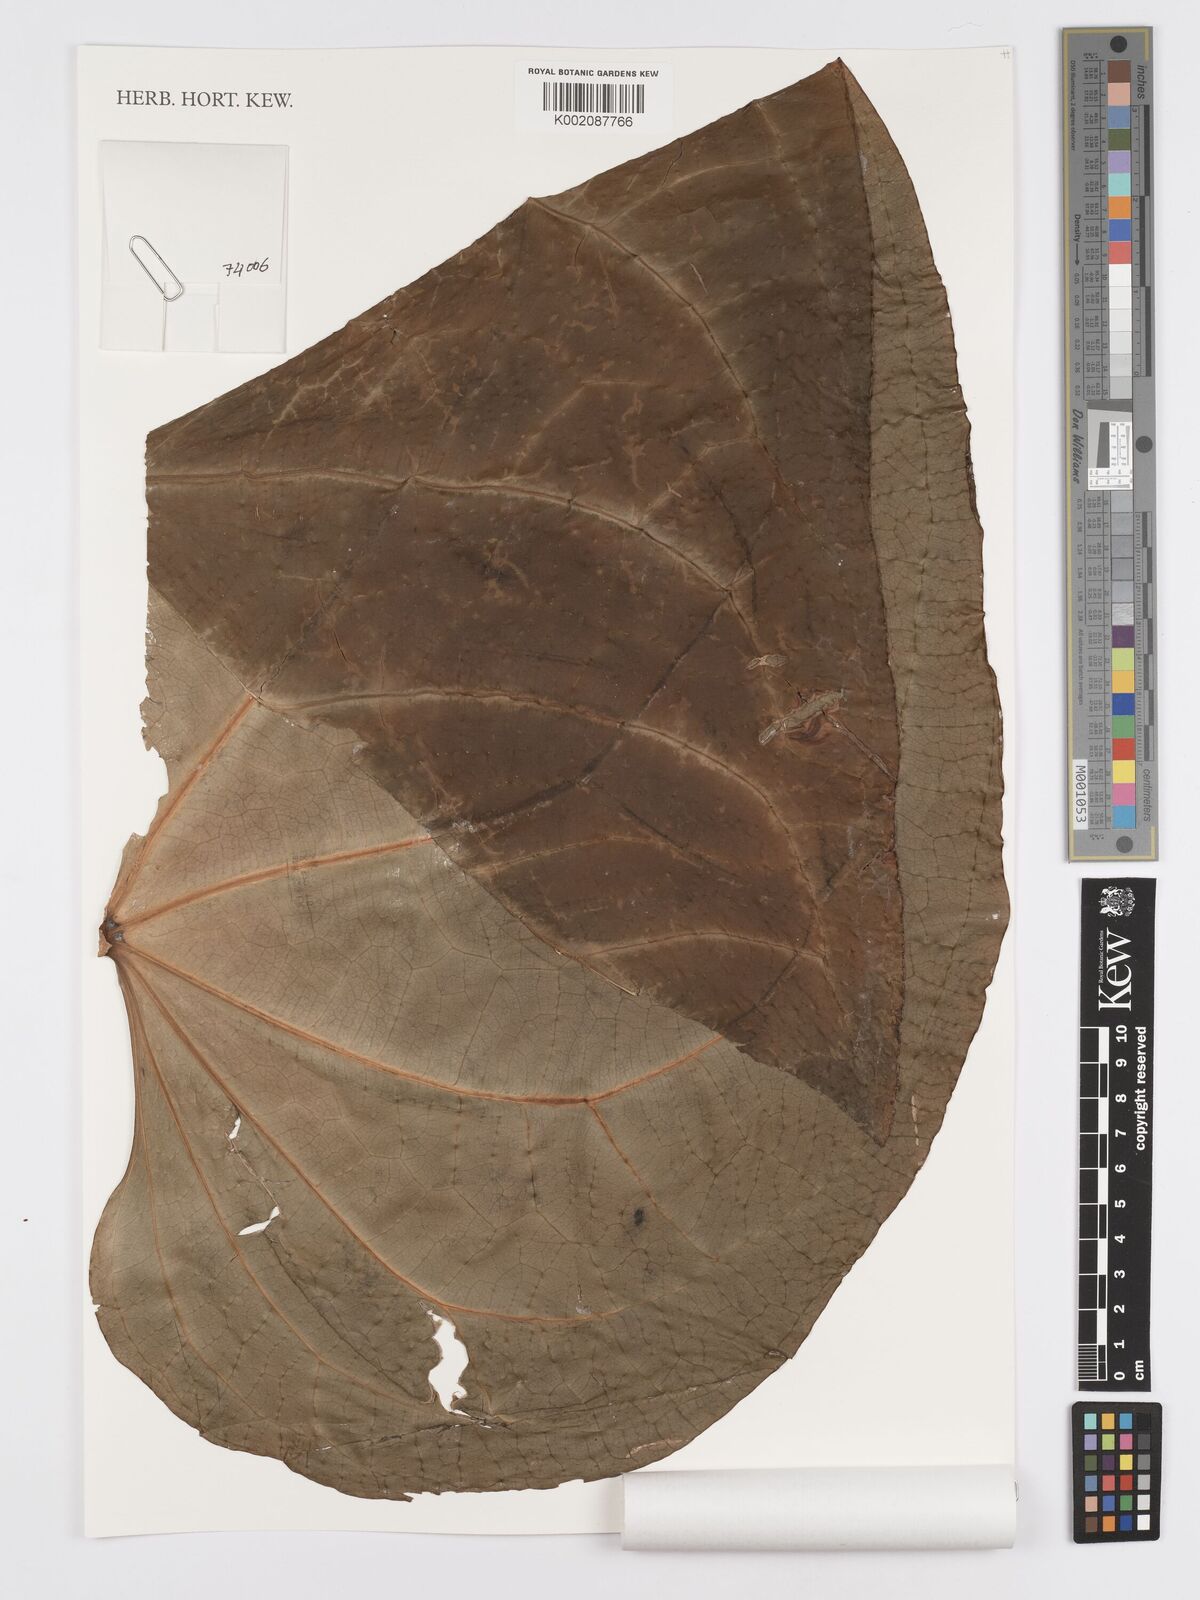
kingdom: Plantae
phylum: Tracheophyta
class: Liliopsida
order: Alismatales
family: Araceae
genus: Anthurium
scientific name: Anthurium magnificum
